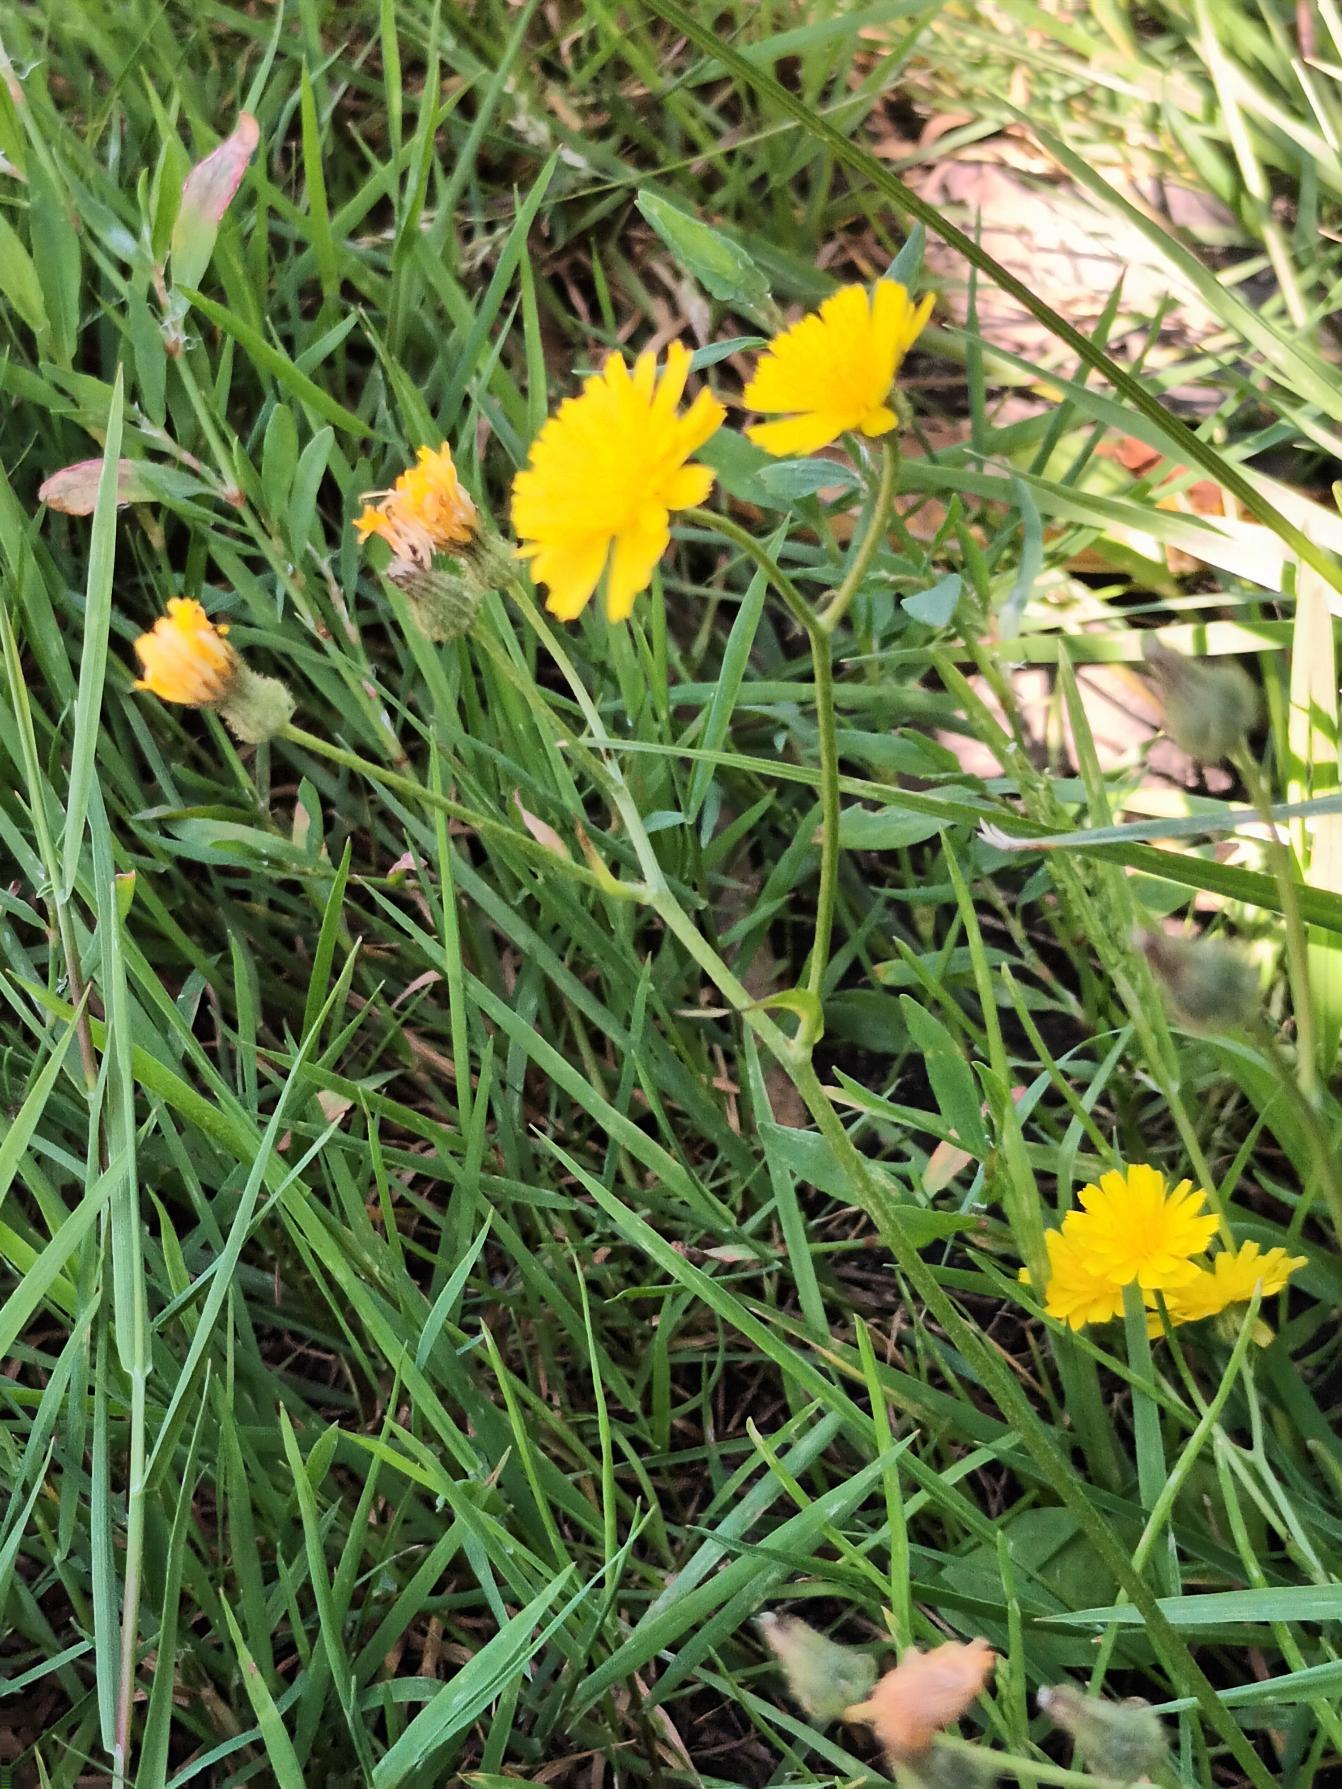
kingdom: Plantae
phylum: Tracheophyta
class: Magnoliopsida
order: Asterales
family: Asteraceae
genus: Crepis
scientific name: Crepis capillaris
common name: Grøn høgeskæg
